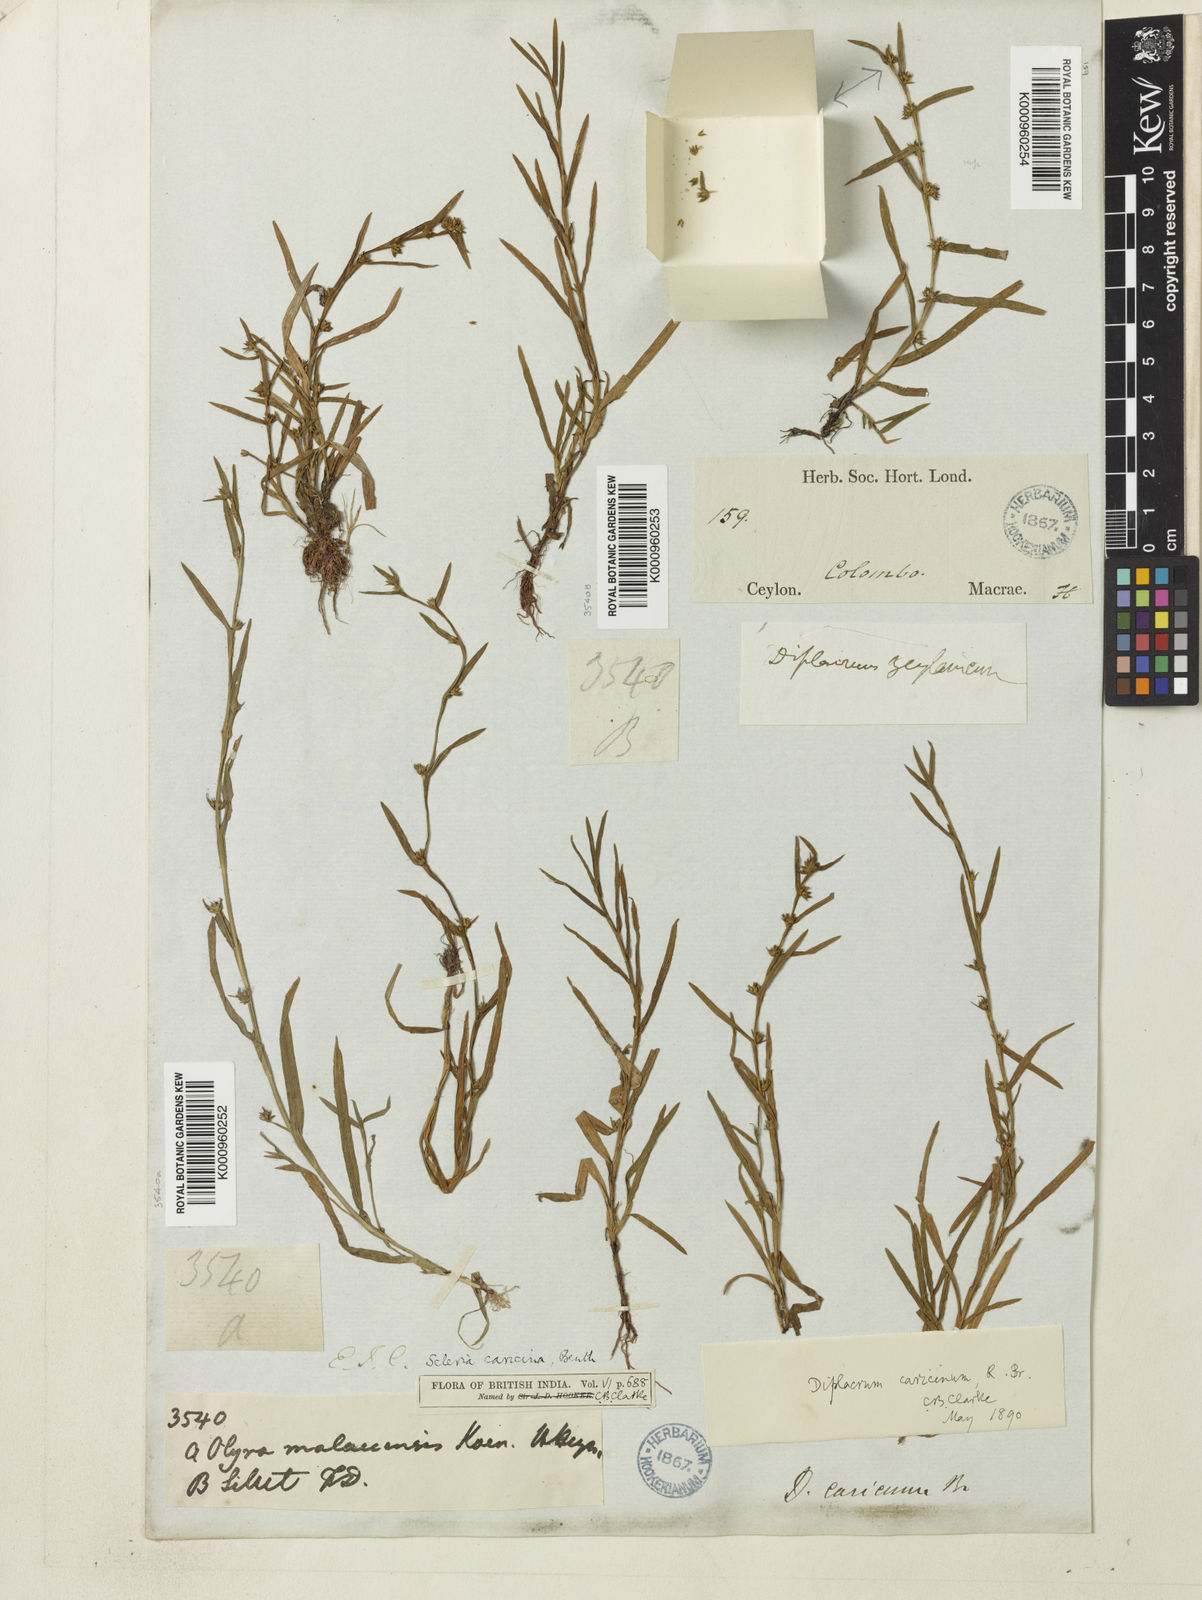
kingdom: Plantae
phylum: Tracheophyta
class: Liliopsida
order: Poales
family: Cyperaceae
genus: Diplacrum
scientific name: Diplacrum caricinum
